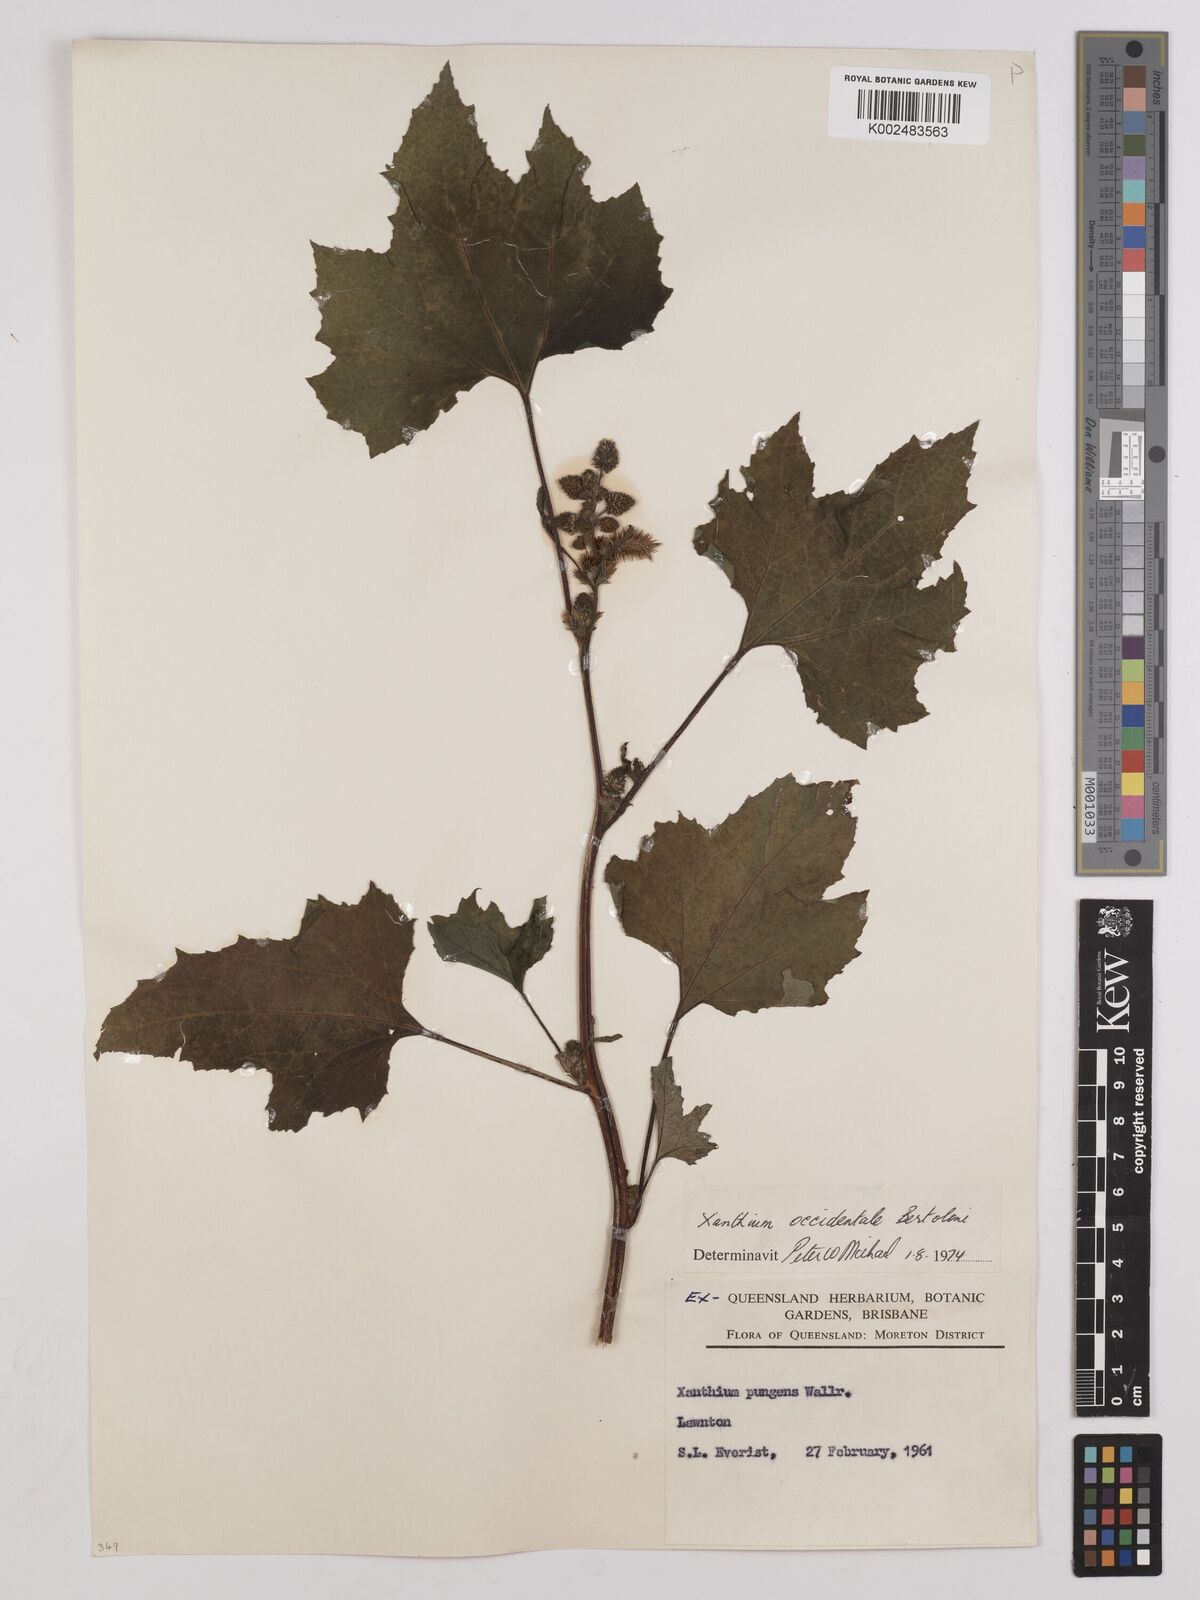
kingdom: Plantae
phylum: Tracheophyta
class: Magnoliopsida
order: Asterales
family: Asteraceae
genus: Xanthium
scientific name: Xanthium occidentale
